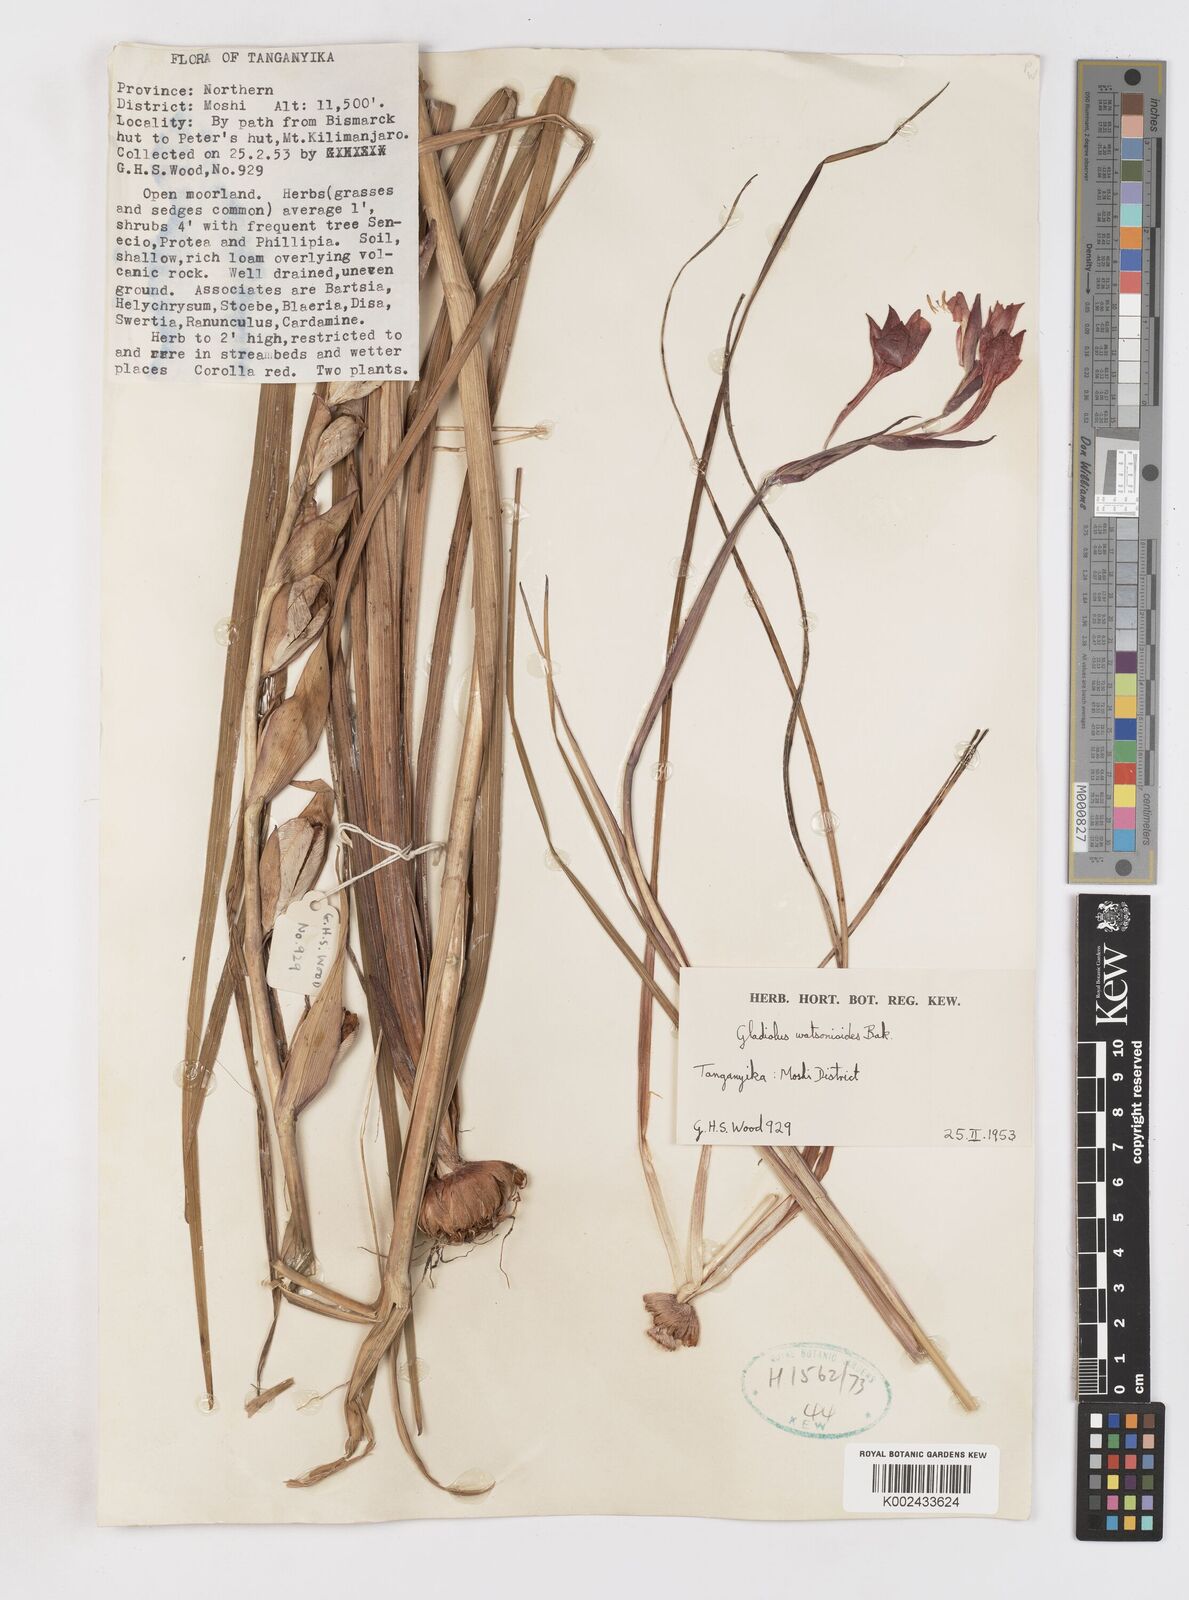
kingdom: Plantae
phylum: Tracheophyta
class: Liliopsida
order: Asparagales
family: Iridaceae
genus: Gladiolus
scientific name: Gladiolus watsonioides
